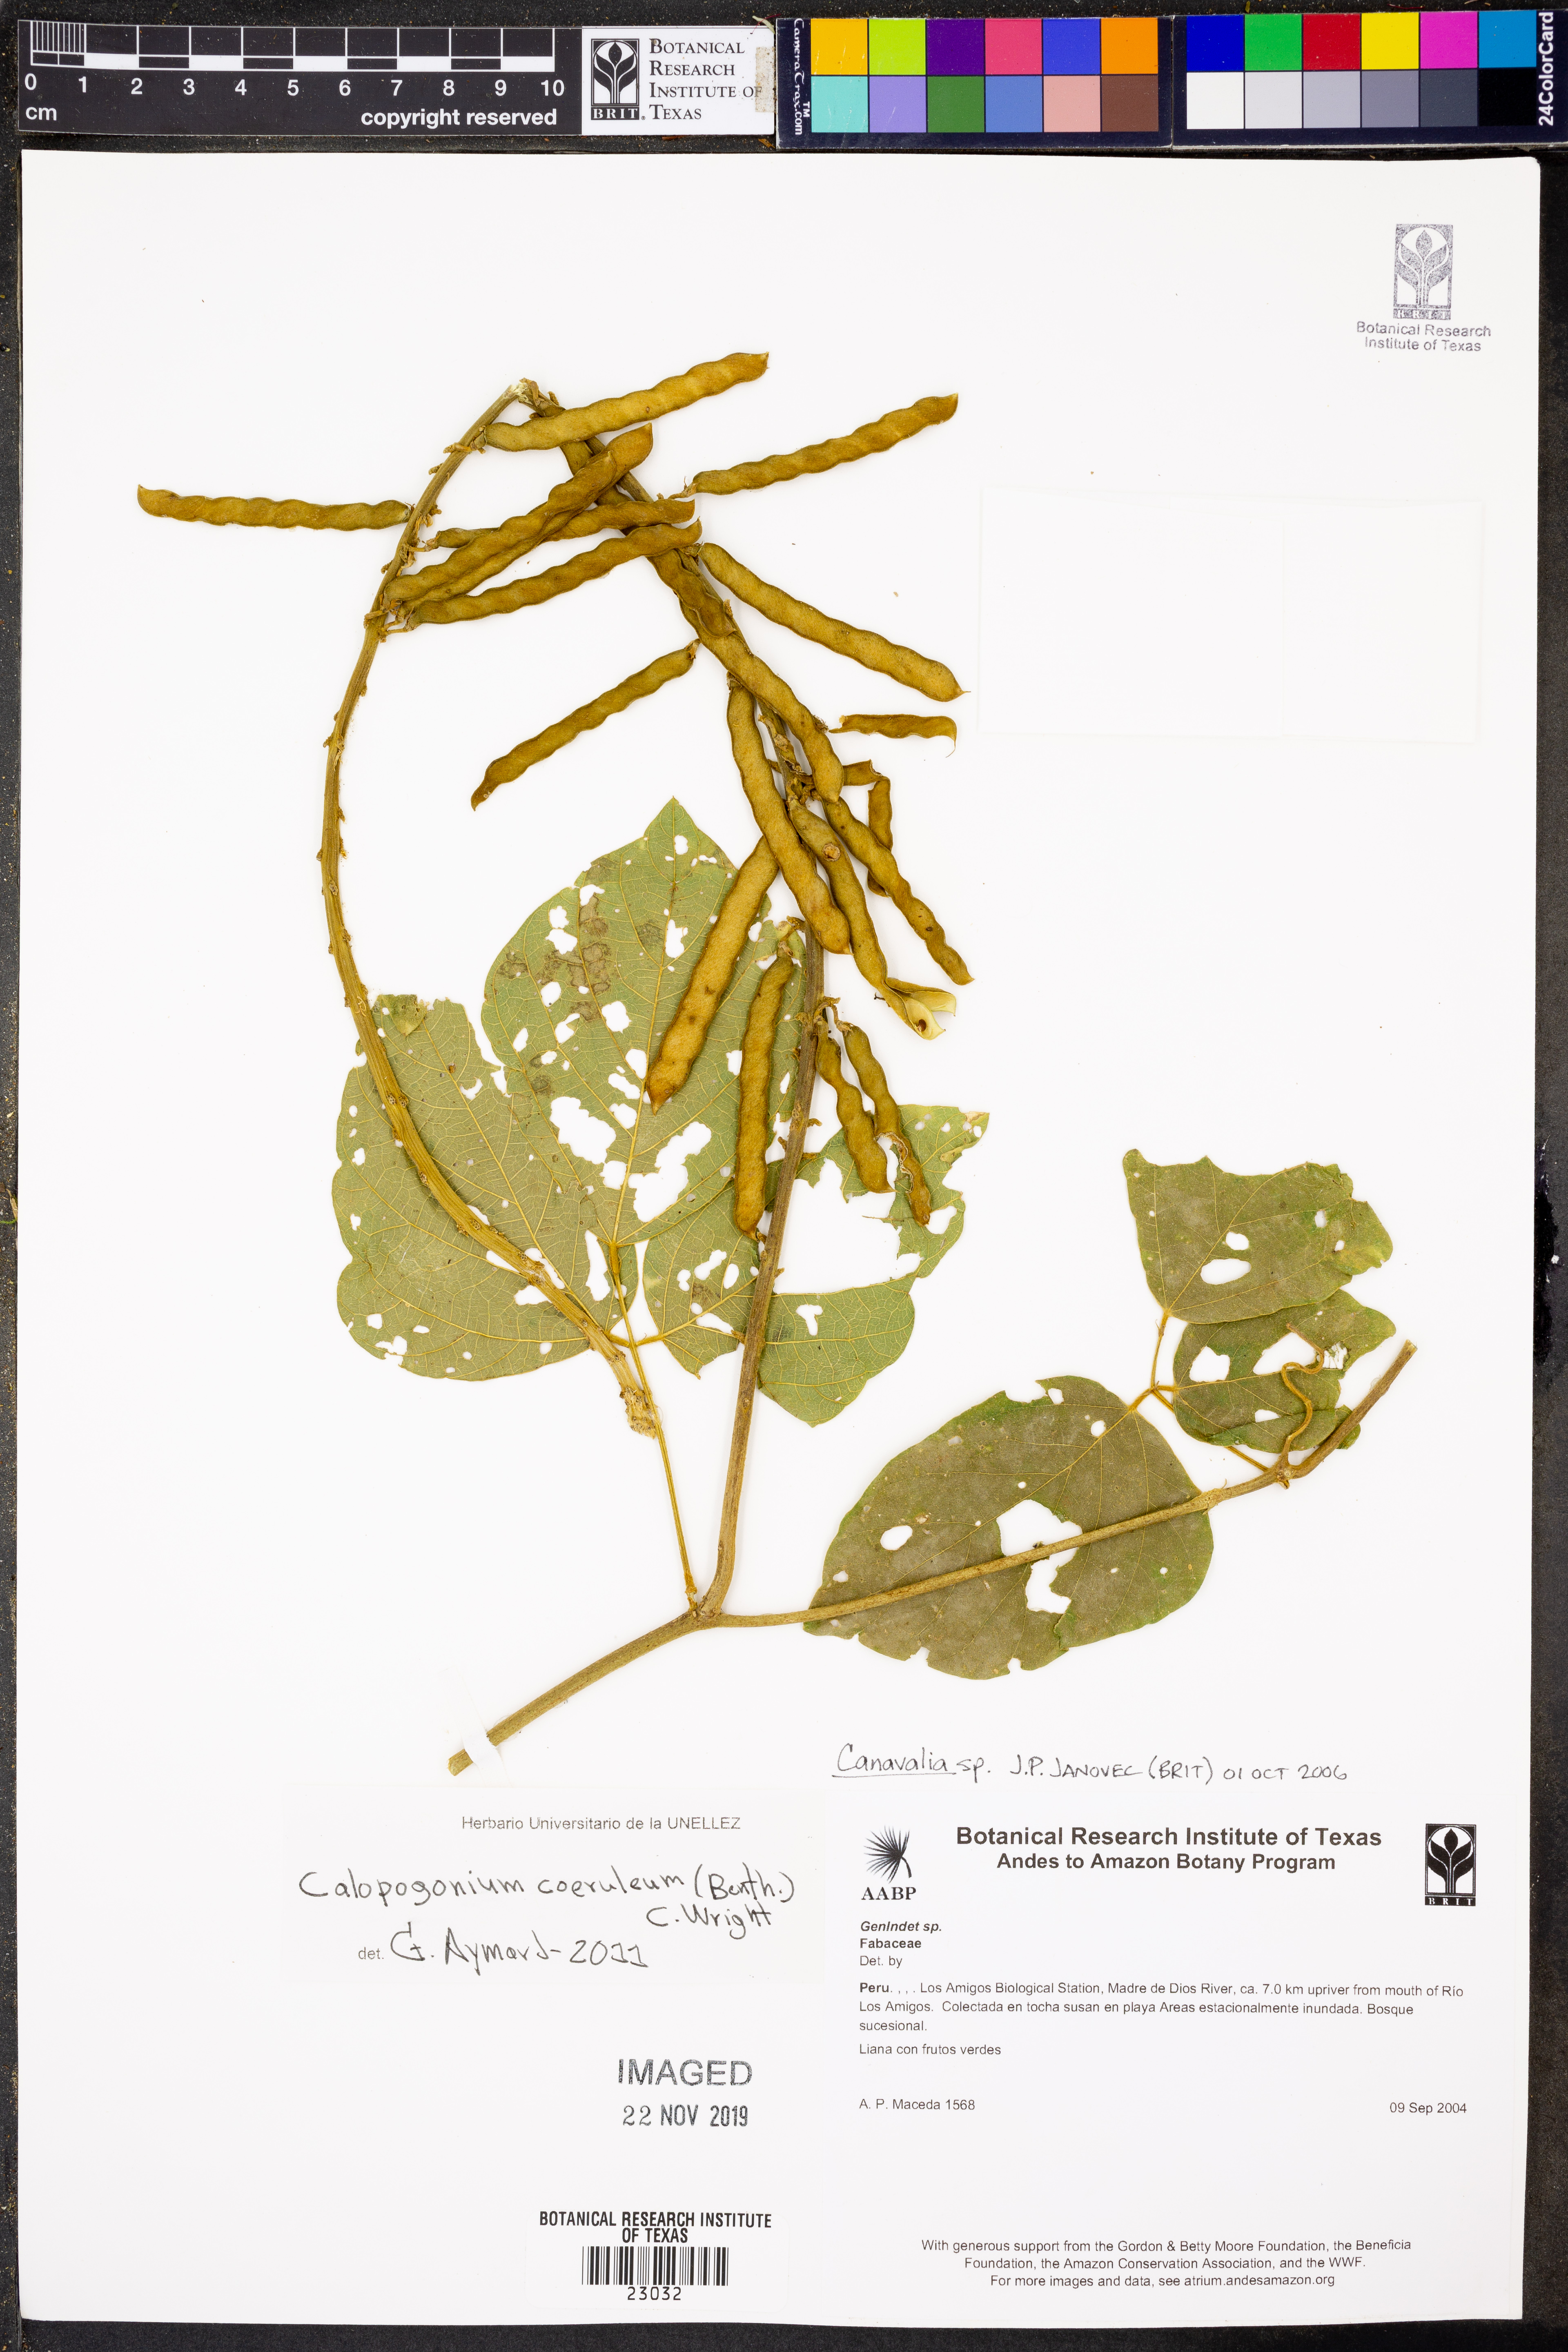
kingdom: Plantae
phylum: Tracheophyta
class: Magnoliopsida
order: Fabales
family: Fabaceae
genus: Calopogonium
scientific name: Calopogonium
